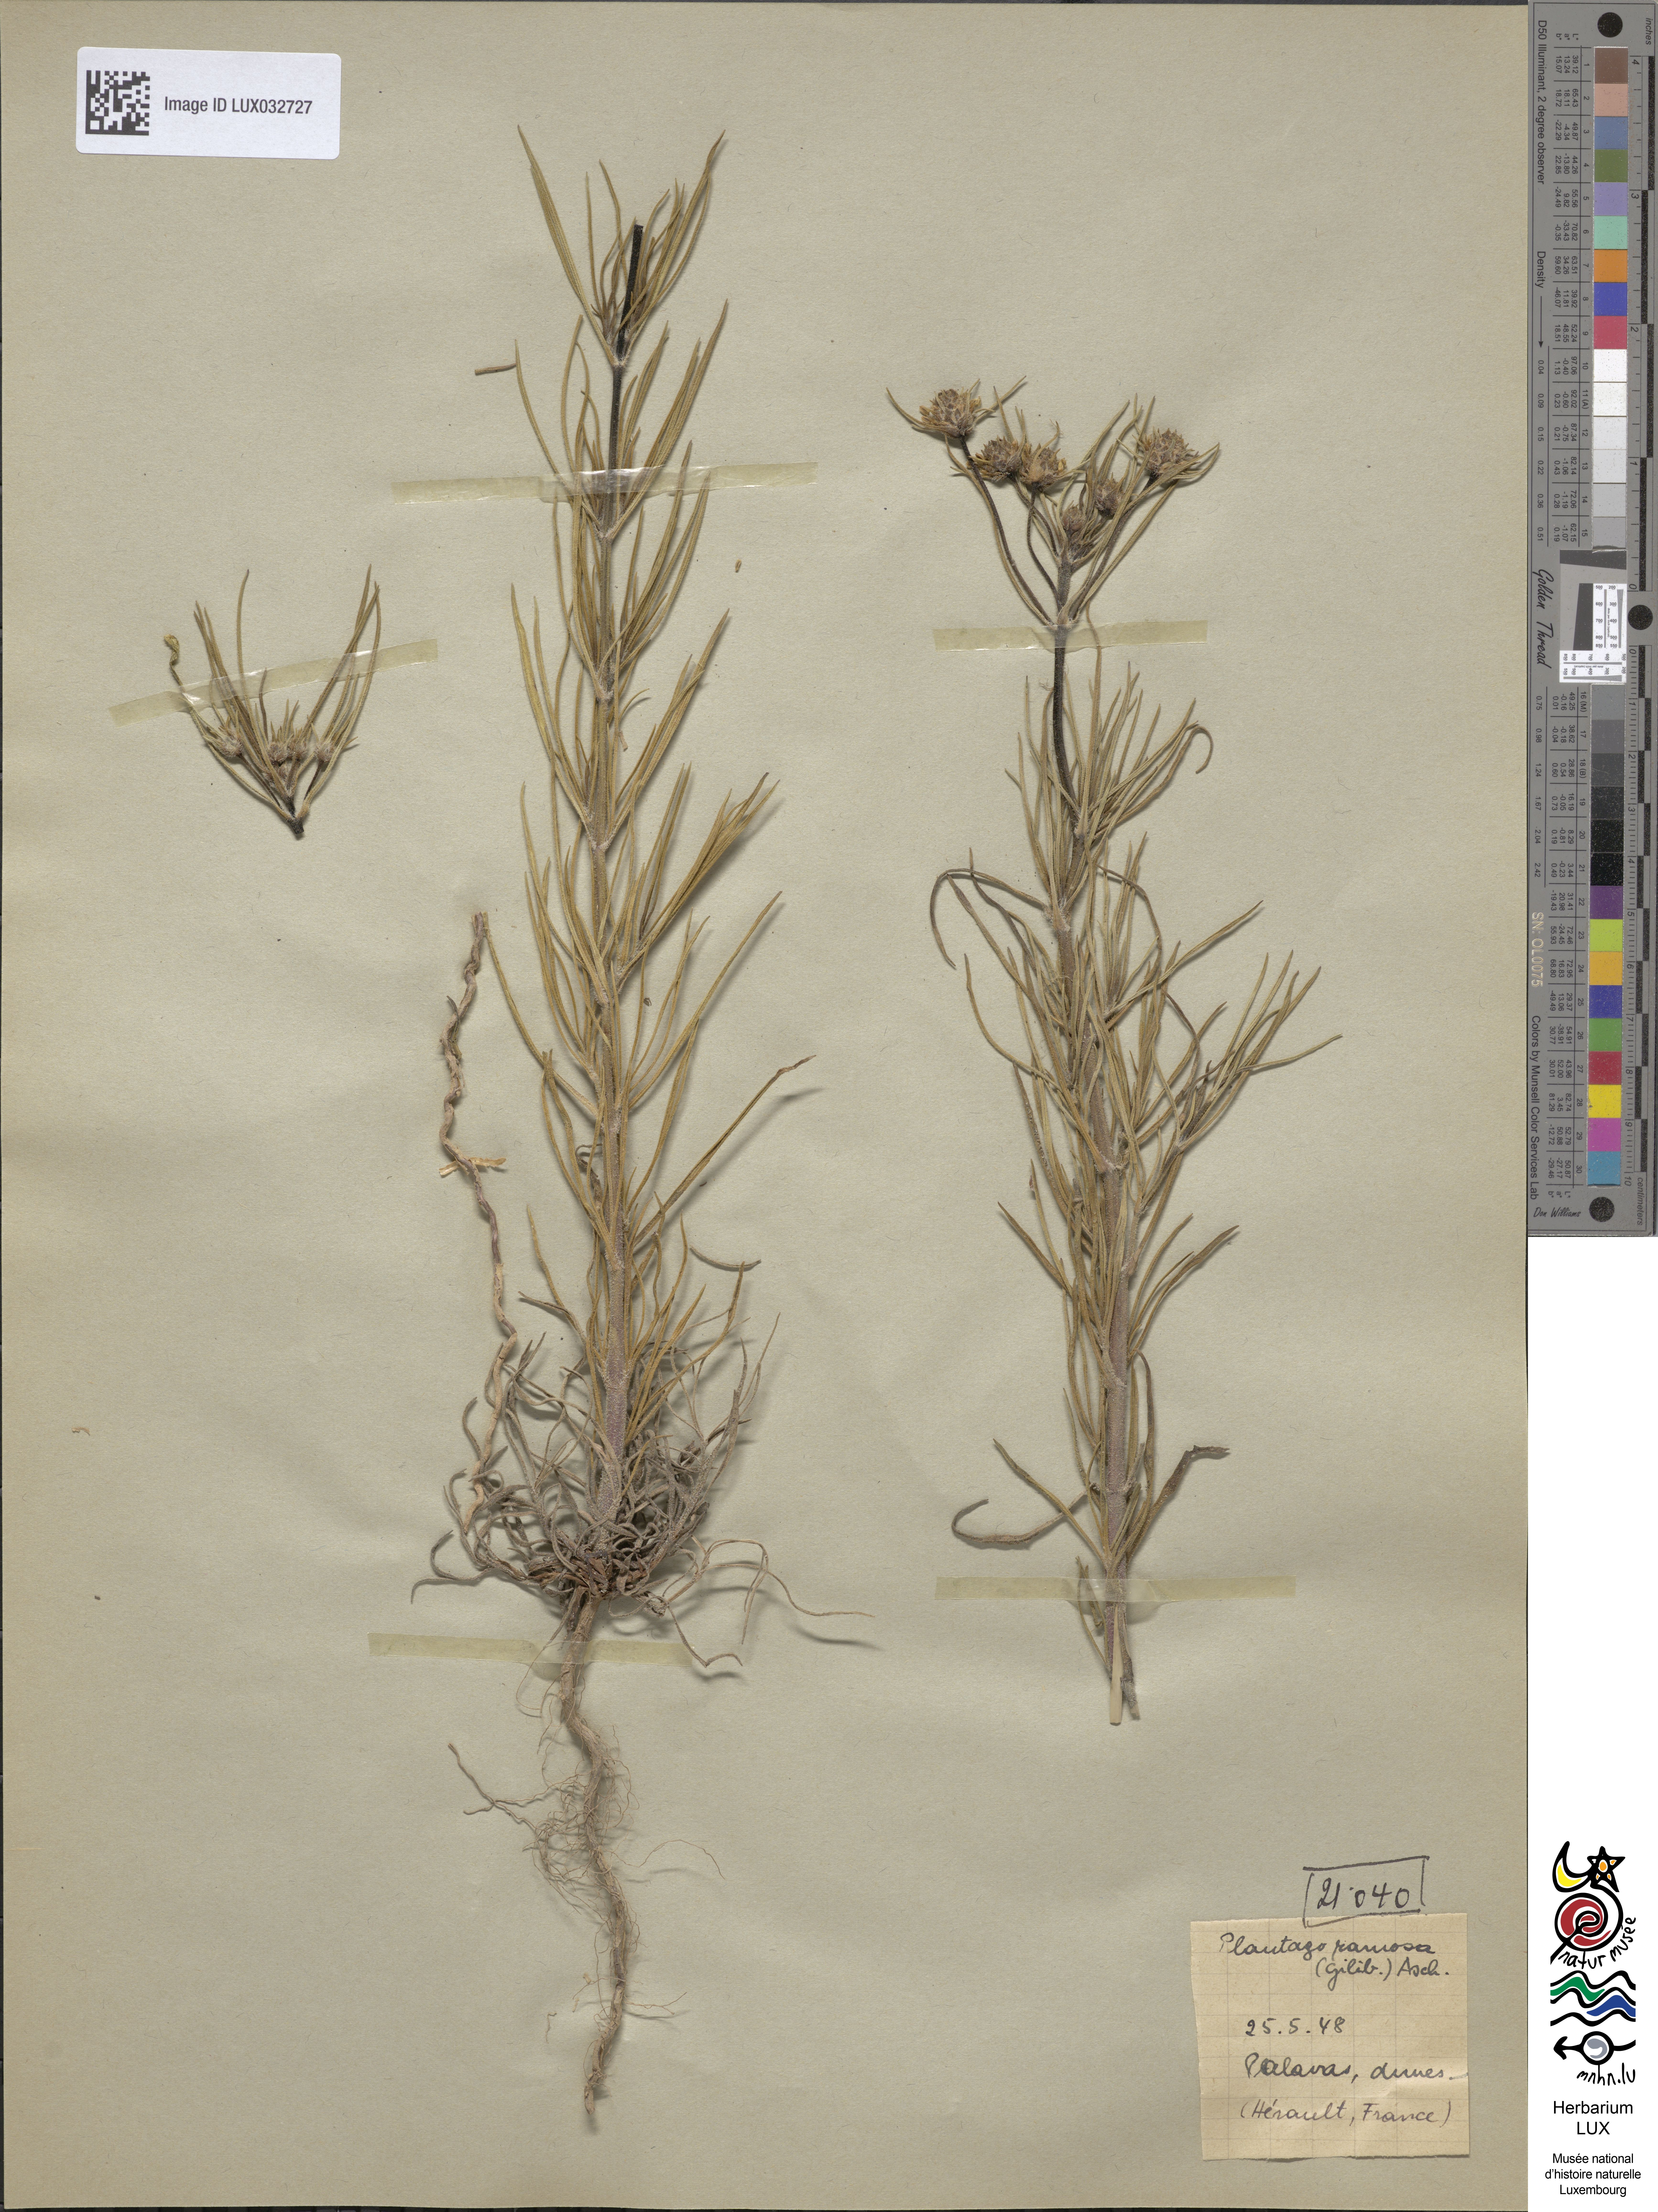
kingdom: Plantae
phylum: Tracheophyta
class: Magnoliopsida
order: Lamiales
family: Plantaginaceae
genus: Plantago
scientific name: Plantago arenaria
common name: Branched plantain
